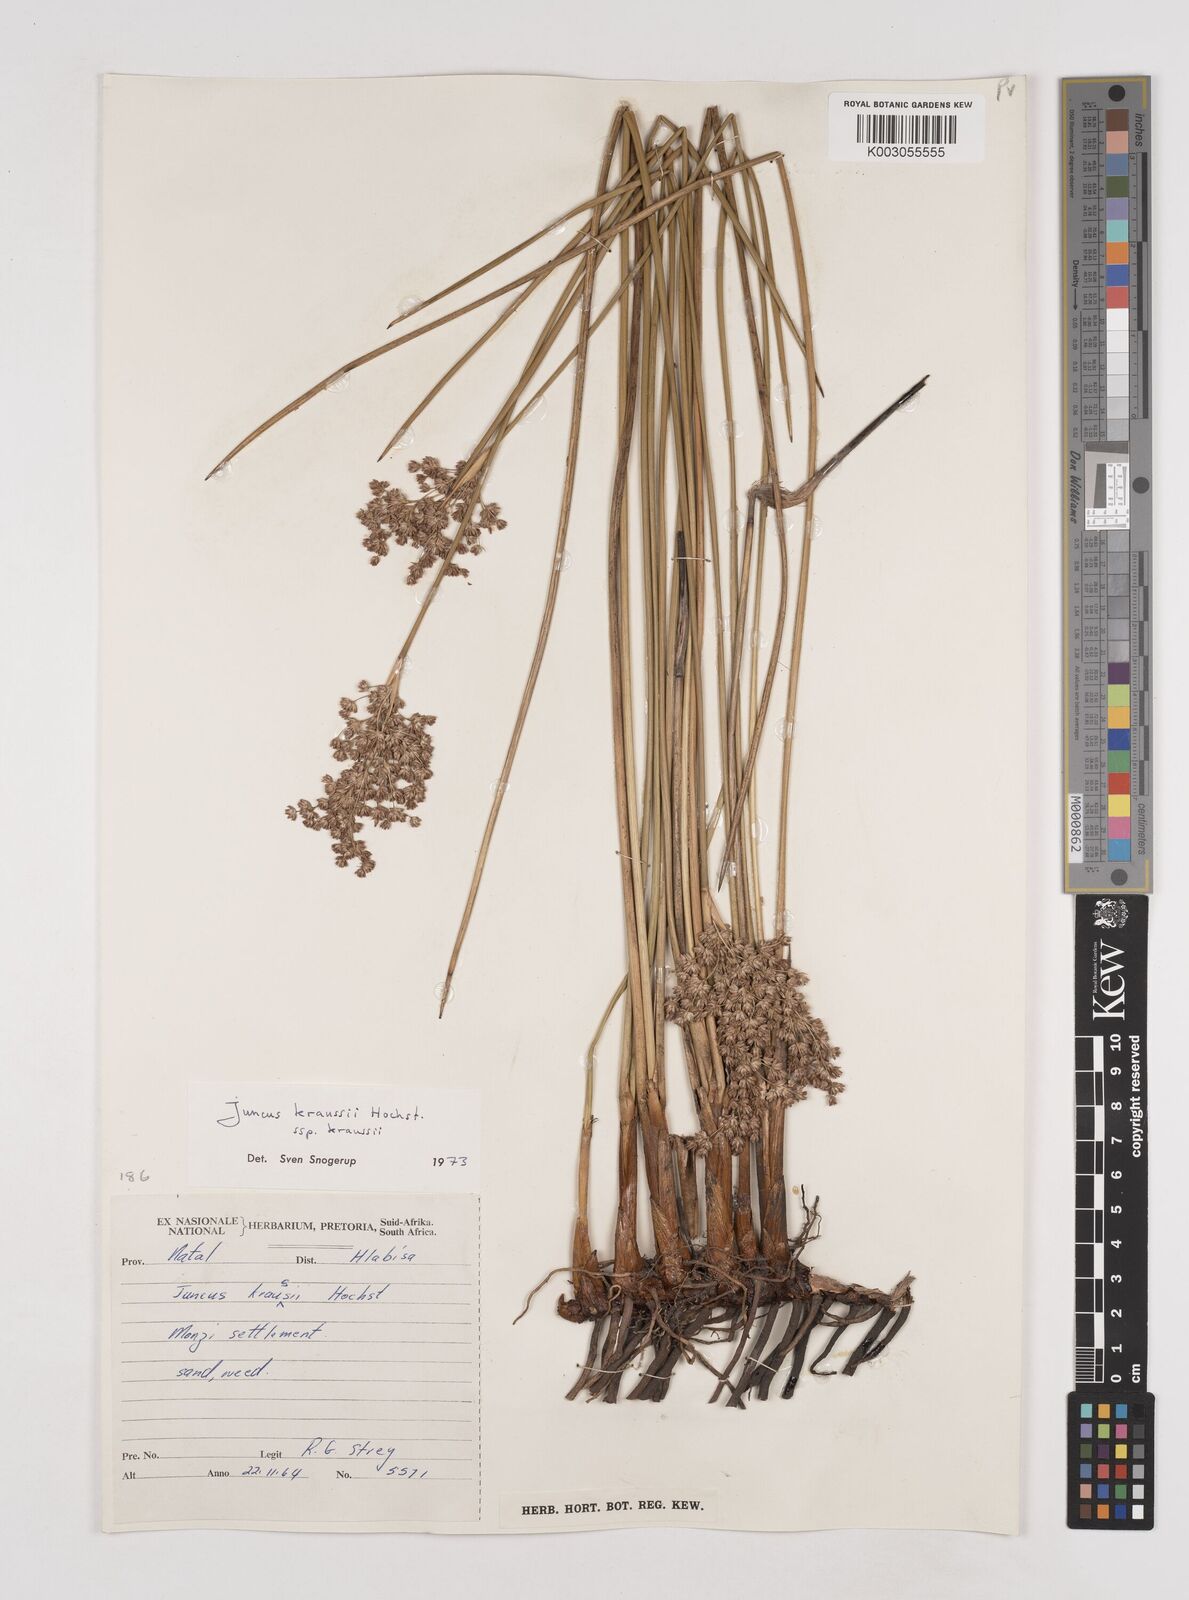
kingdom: Plantae
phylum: Tracheophyta
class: Liliopsida
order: Poales
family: Juncaceae
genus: Juncus
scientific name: Juncus kraussii
